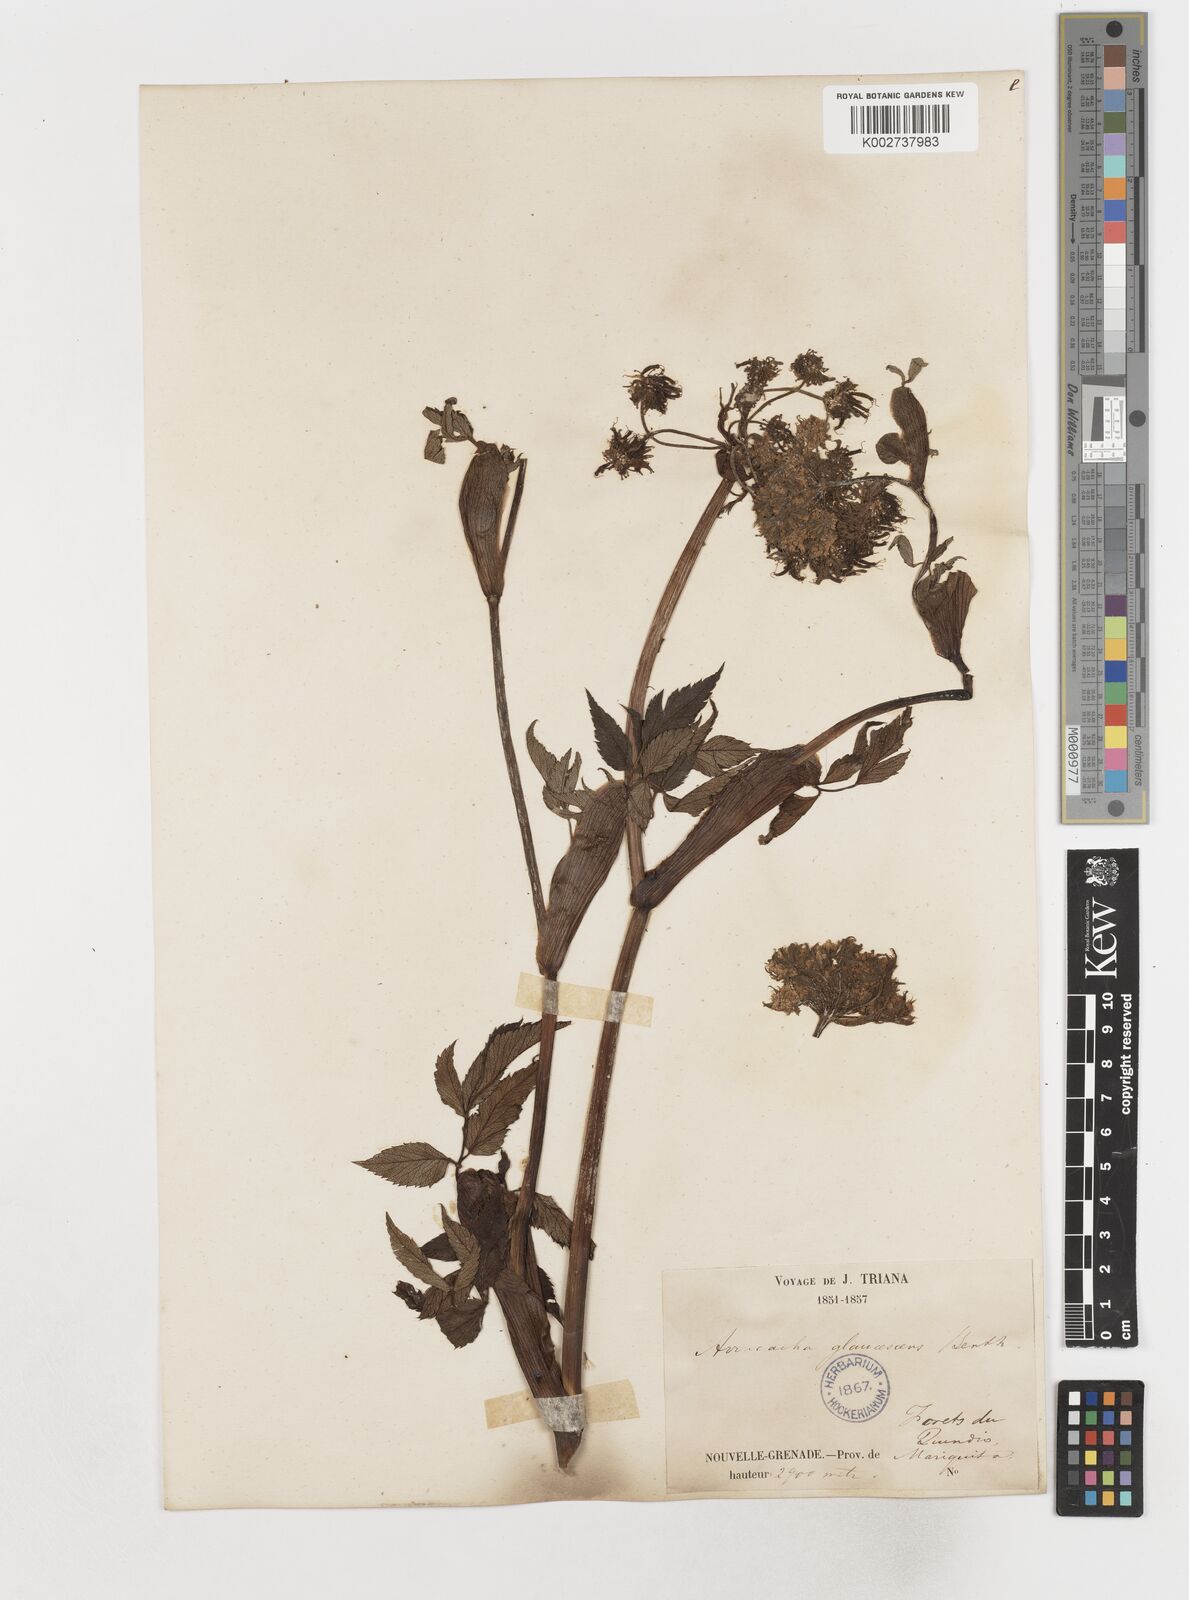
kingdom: Plantae
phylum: Tracheophyta
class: Magnoliopsida
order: Apiales
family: Apiaceae
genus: Myrrhidendron
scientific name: Myrrhidendron pennellii
